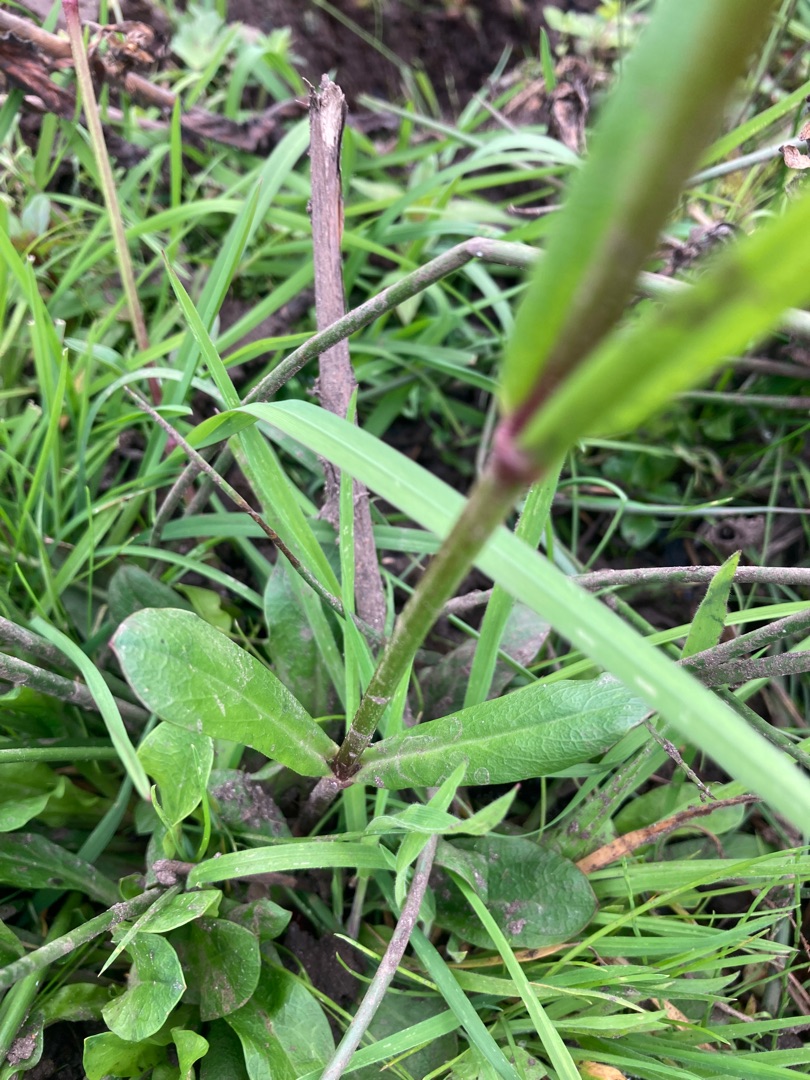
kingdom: Plantae
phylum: Tracheophyta
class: Magnoliopsida
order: Caryophyllales
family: Caryophyllaceae
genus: Silene
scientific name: Silene flos-cuculi
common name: Trævlekrone
